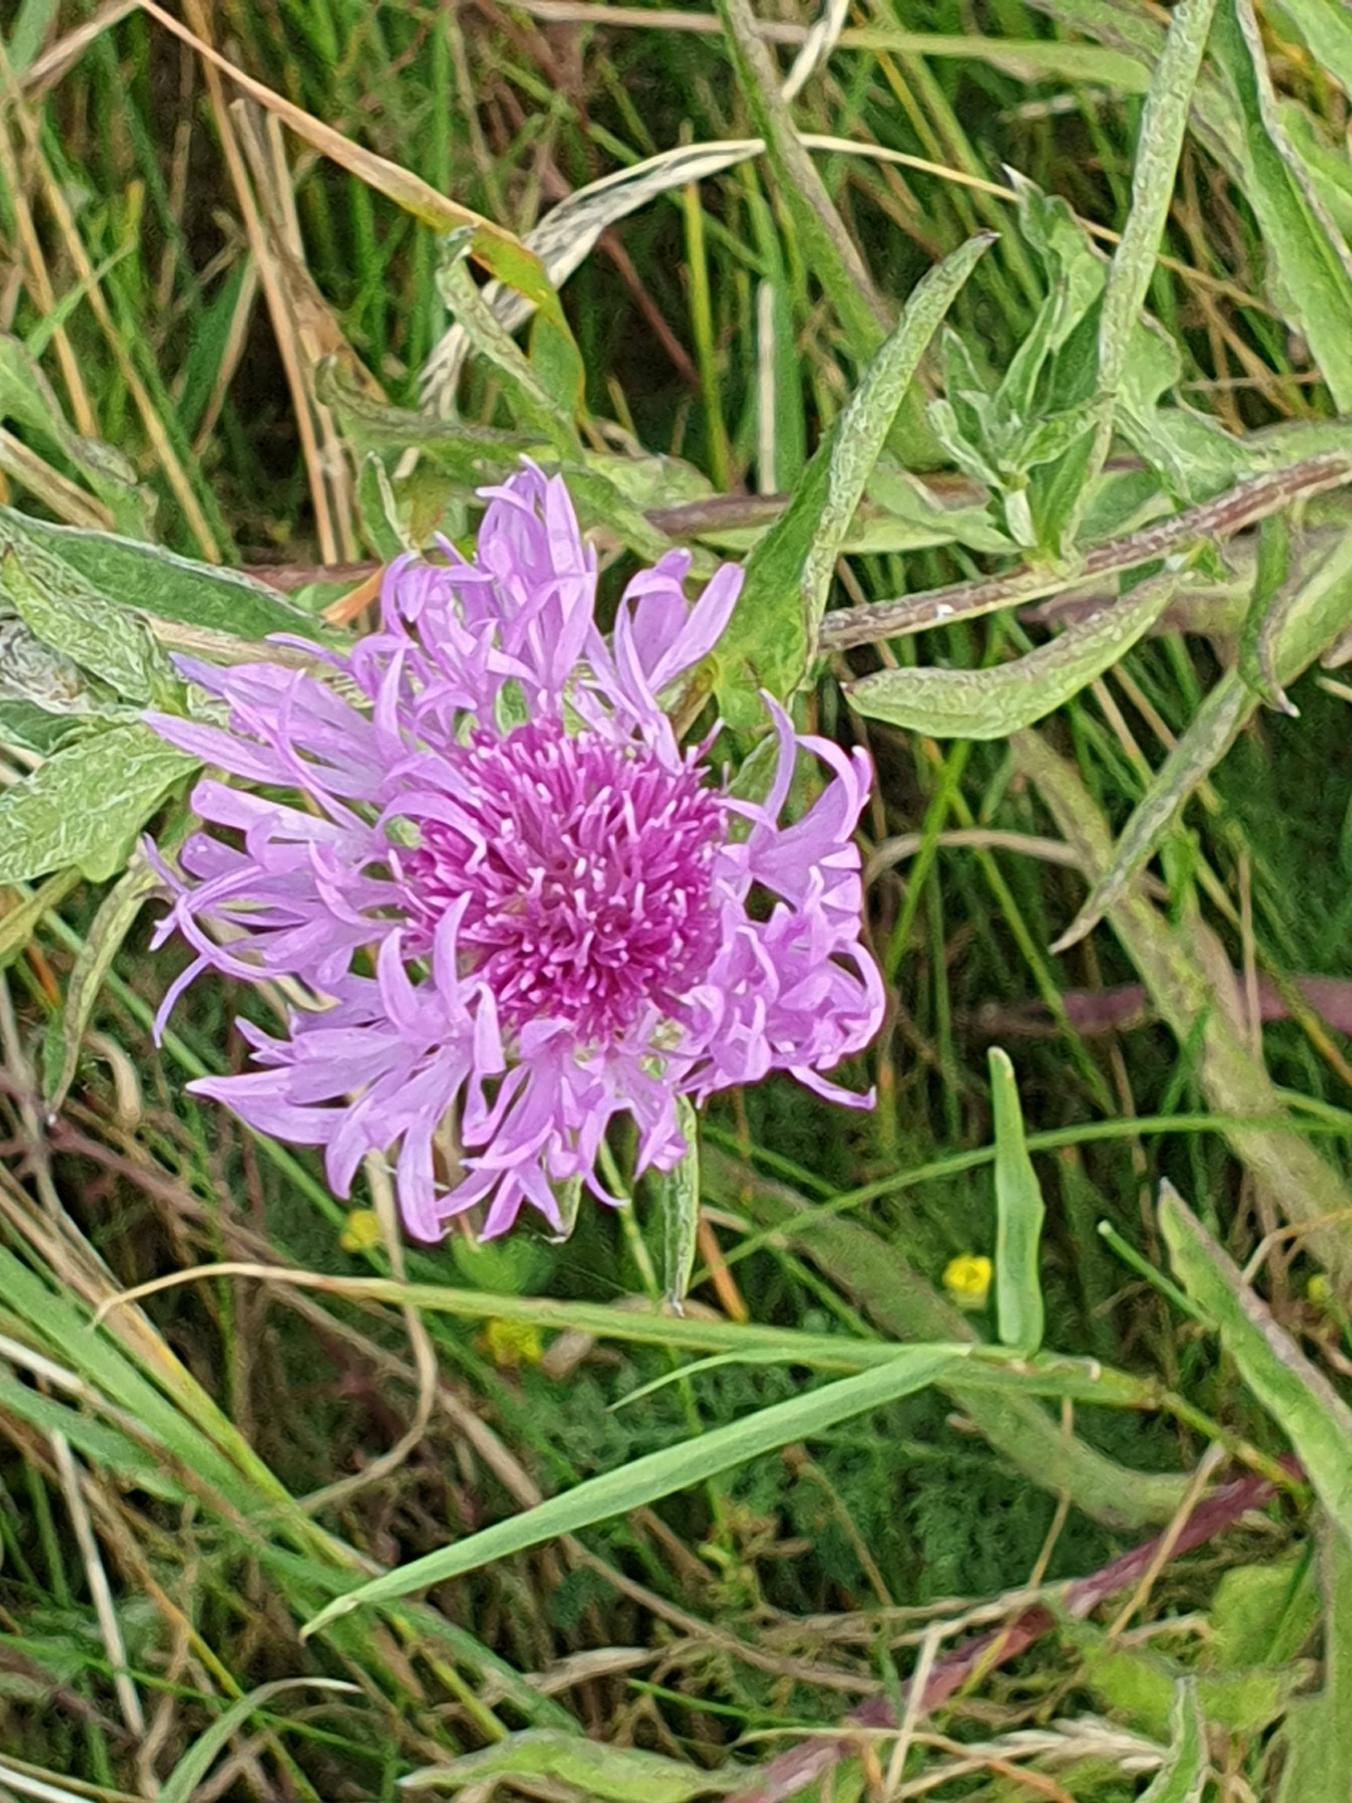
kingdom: Plantae
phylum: Tracheophyta
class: Magnoliopsida
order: Asterales
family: Asteraceae
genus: Centaurea
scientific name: Centaurea jacea
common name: Almindelig knopurt
